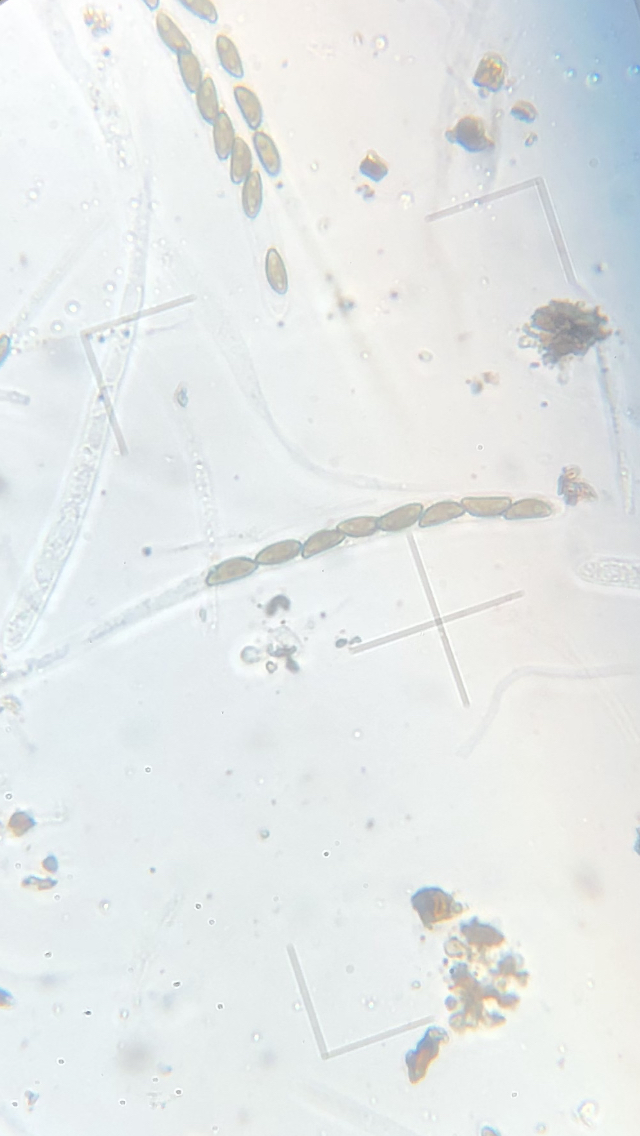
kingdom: Fungi
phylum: Ascomycota
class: Sordariomycetes
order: Xylariales
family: Hypoxylaceae
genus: Jackrogersella
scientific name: Jackrogersella multiformis
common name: foranderlig kulbær
